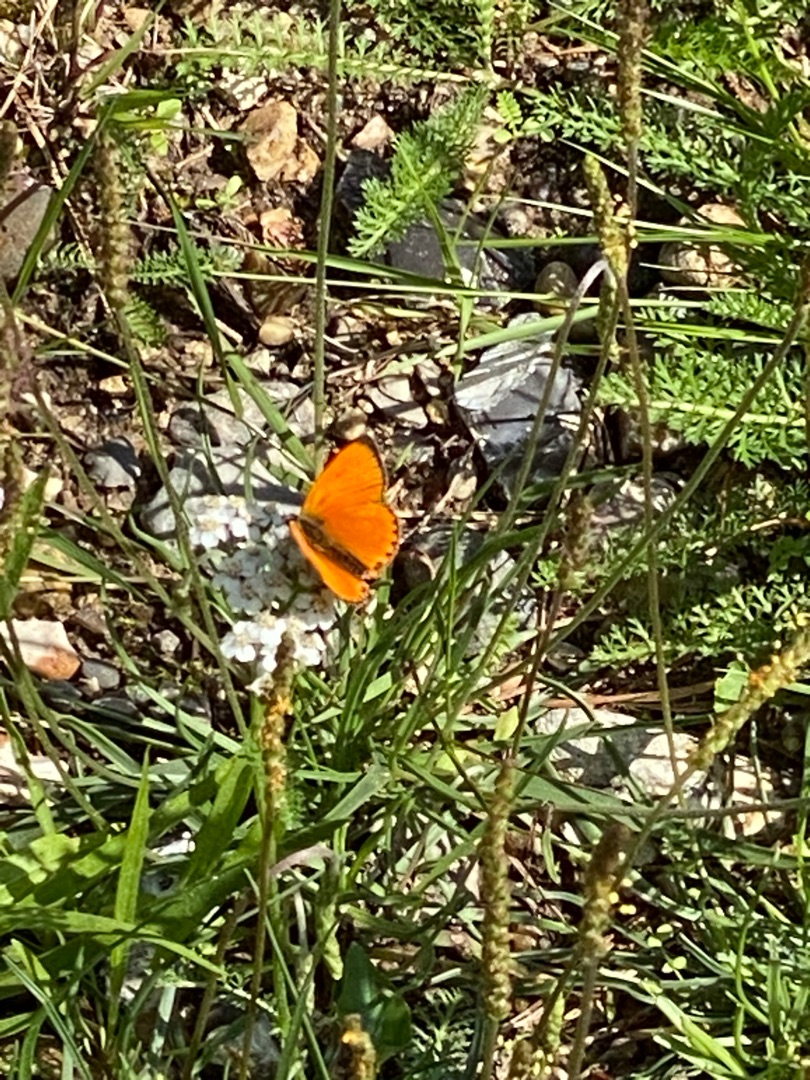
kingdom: Animalia
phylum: Arthropoda
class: Insecta
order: Lepidoptera
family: Lycaenidae
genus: Lycaena
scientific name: Lycaena virgaureae
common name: Dukatsommerfugl
